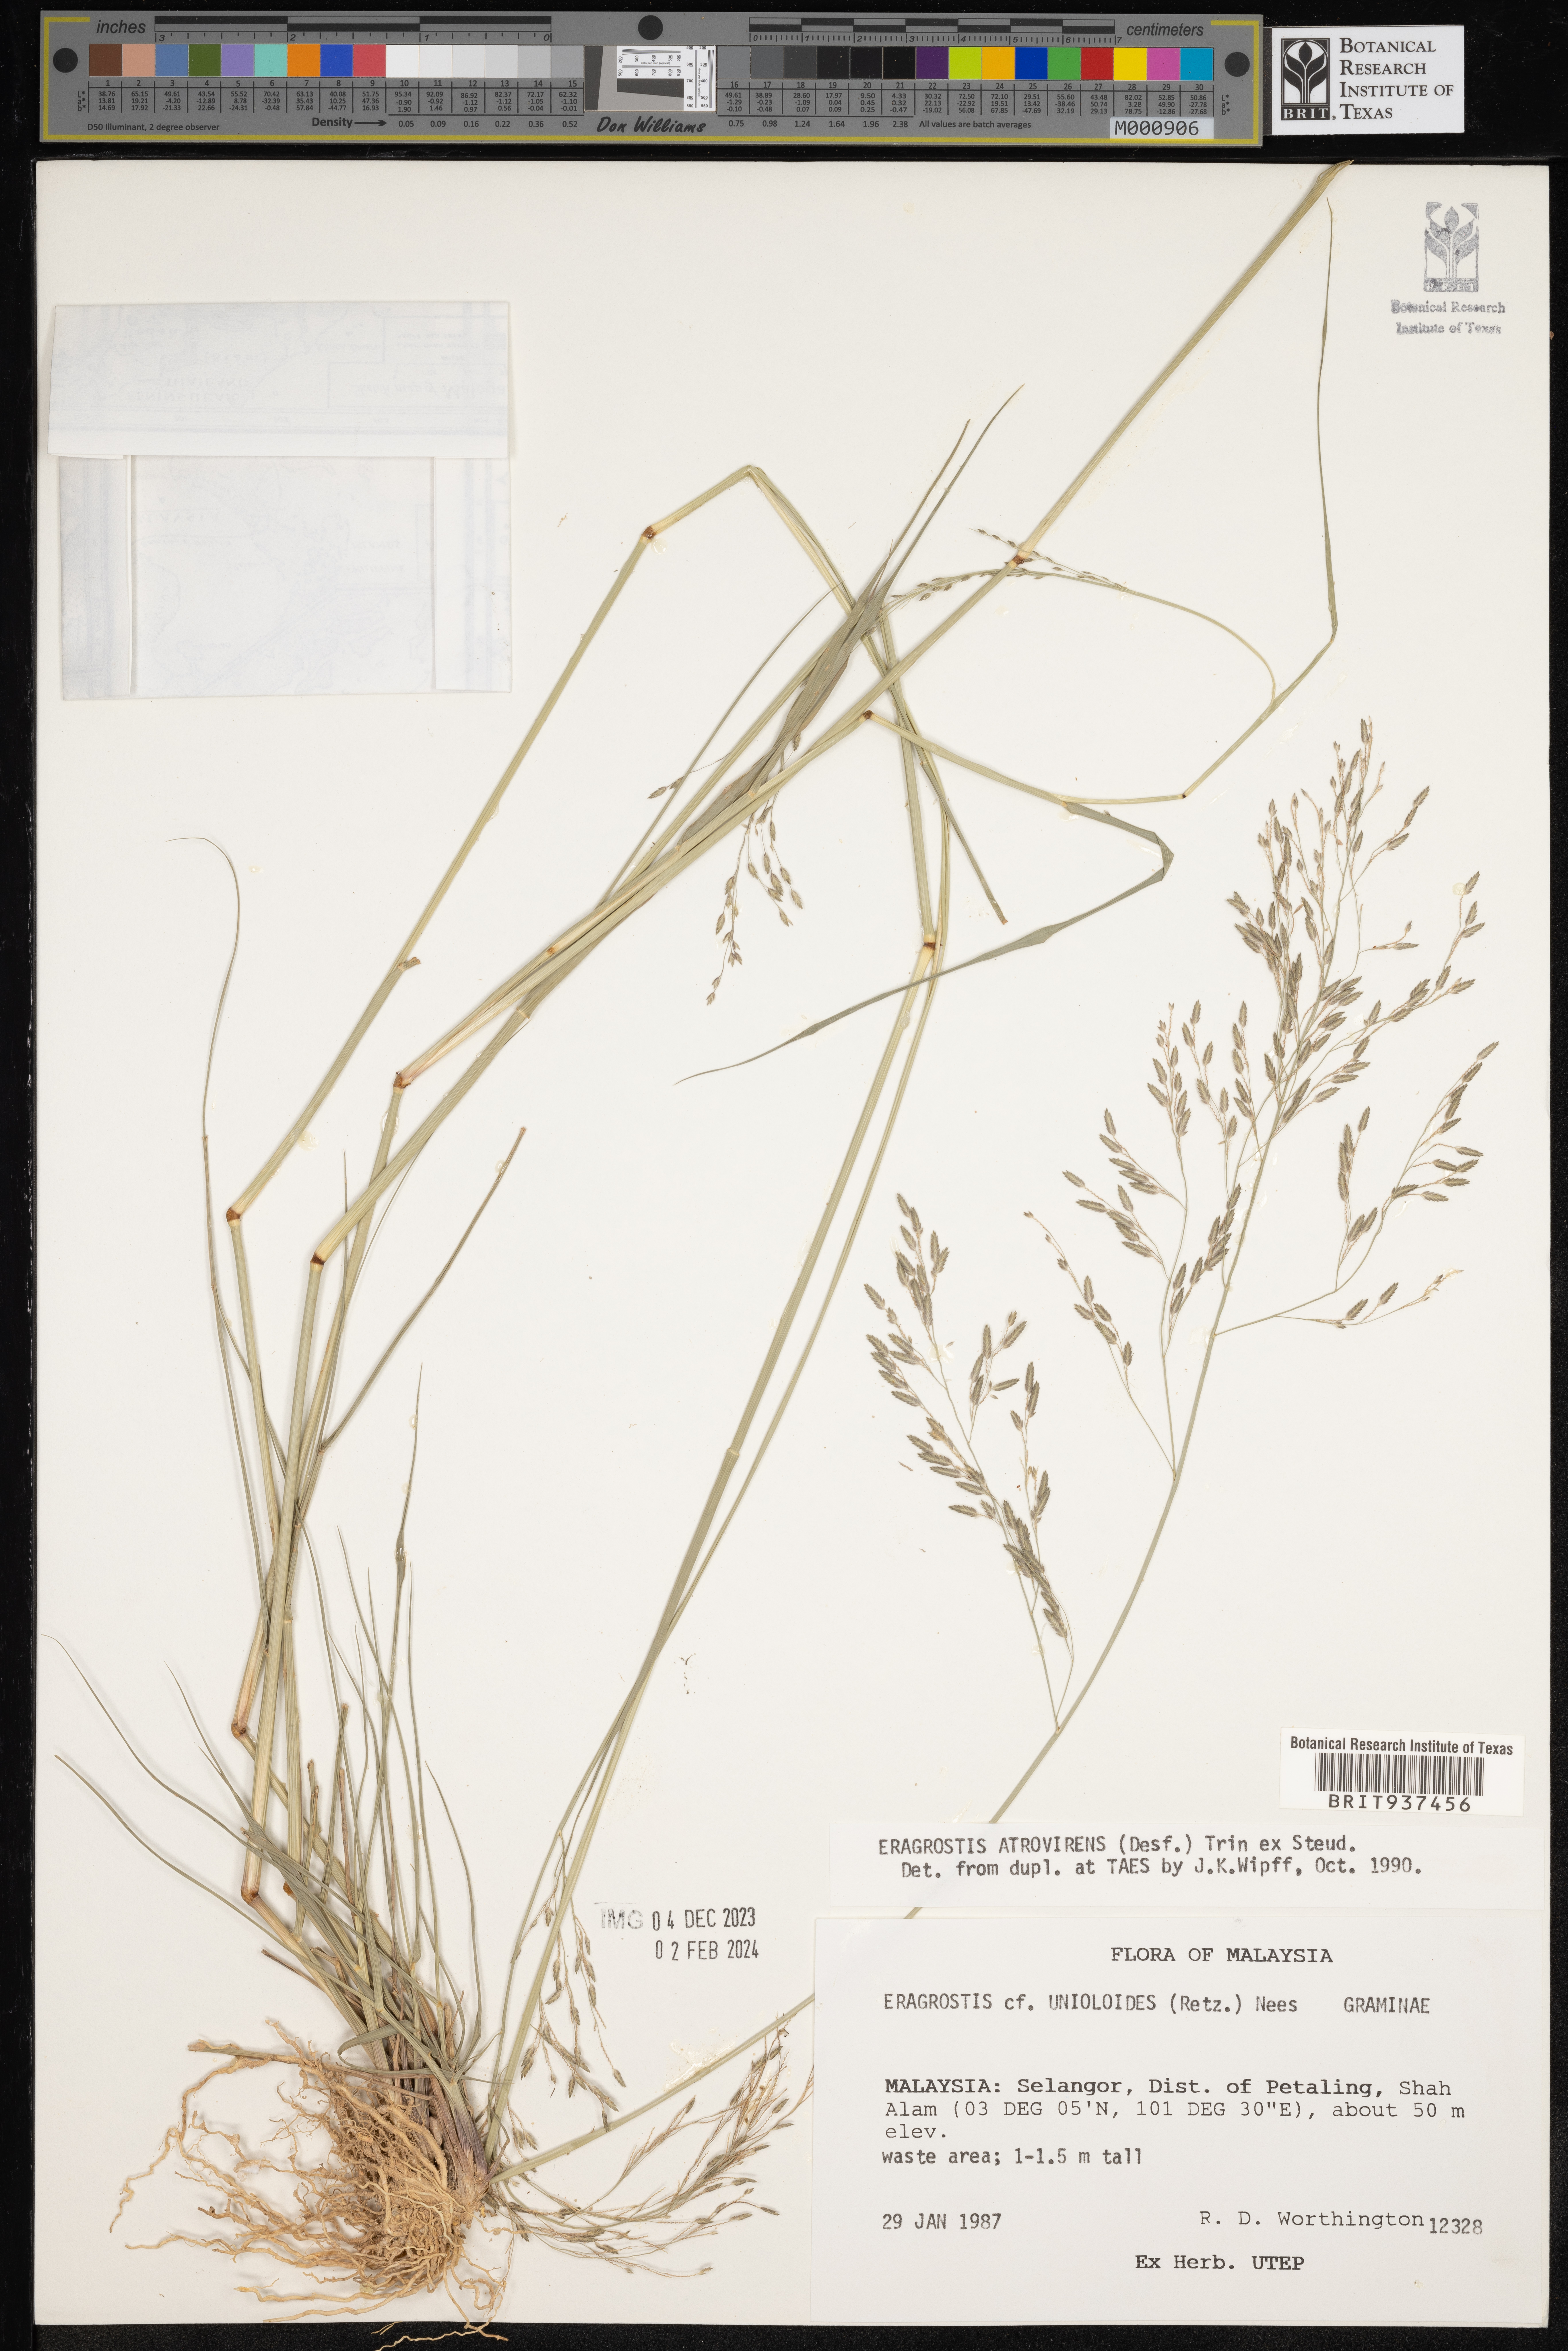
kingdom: Plantae
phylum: Tracheophyta
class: Liliopsida
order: Poales
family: Poaceae
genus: Eragrostis
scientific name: Eragrostis
